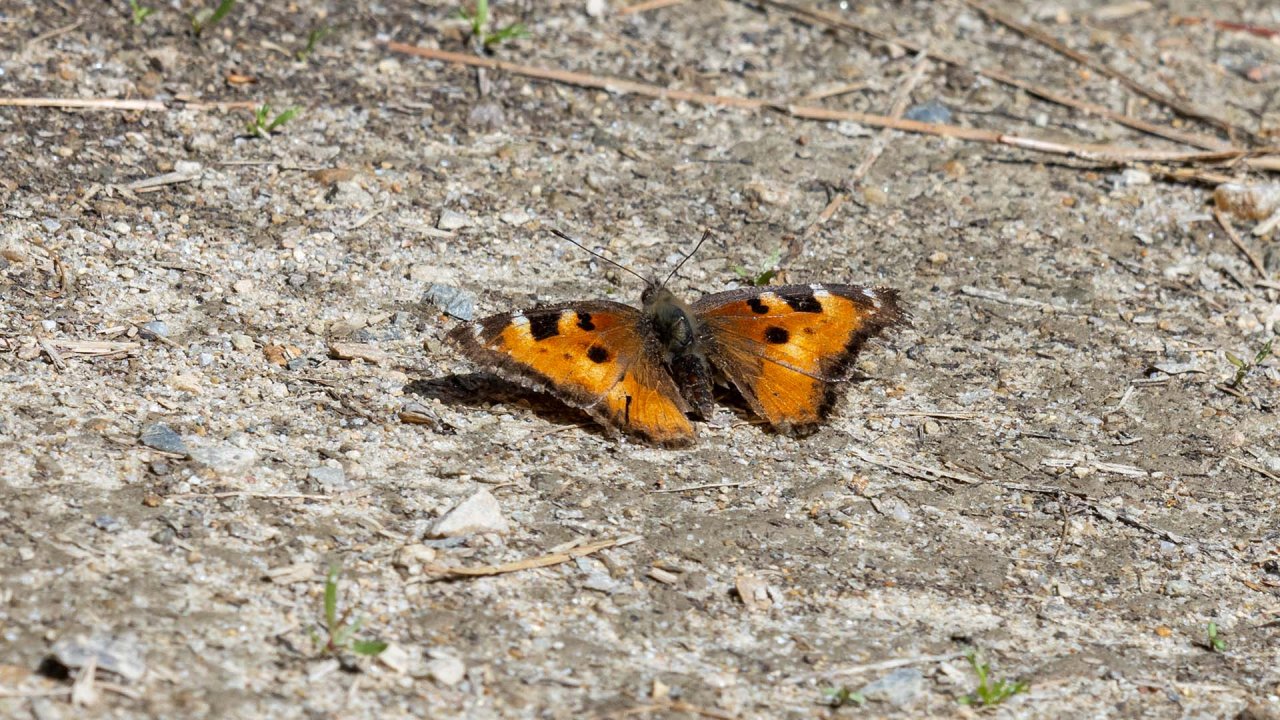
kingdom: Animalia
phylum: Arthropoda
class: Insecta
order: Lepidoptera
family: Nymphalidae
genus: Nymphalis
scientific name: Nymphalis californica
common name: California Tortoiseshell
